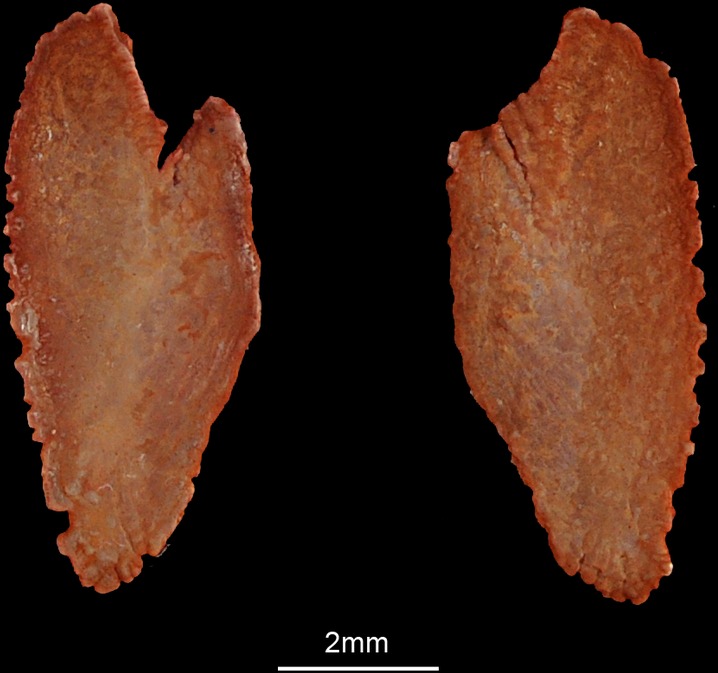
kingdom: Animalia
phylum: Chordata
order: Perciformes
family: Polynemidae
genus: Eleutheronema
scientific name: Eleutheronema tetradactylum
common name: Fourfinger threadfin
